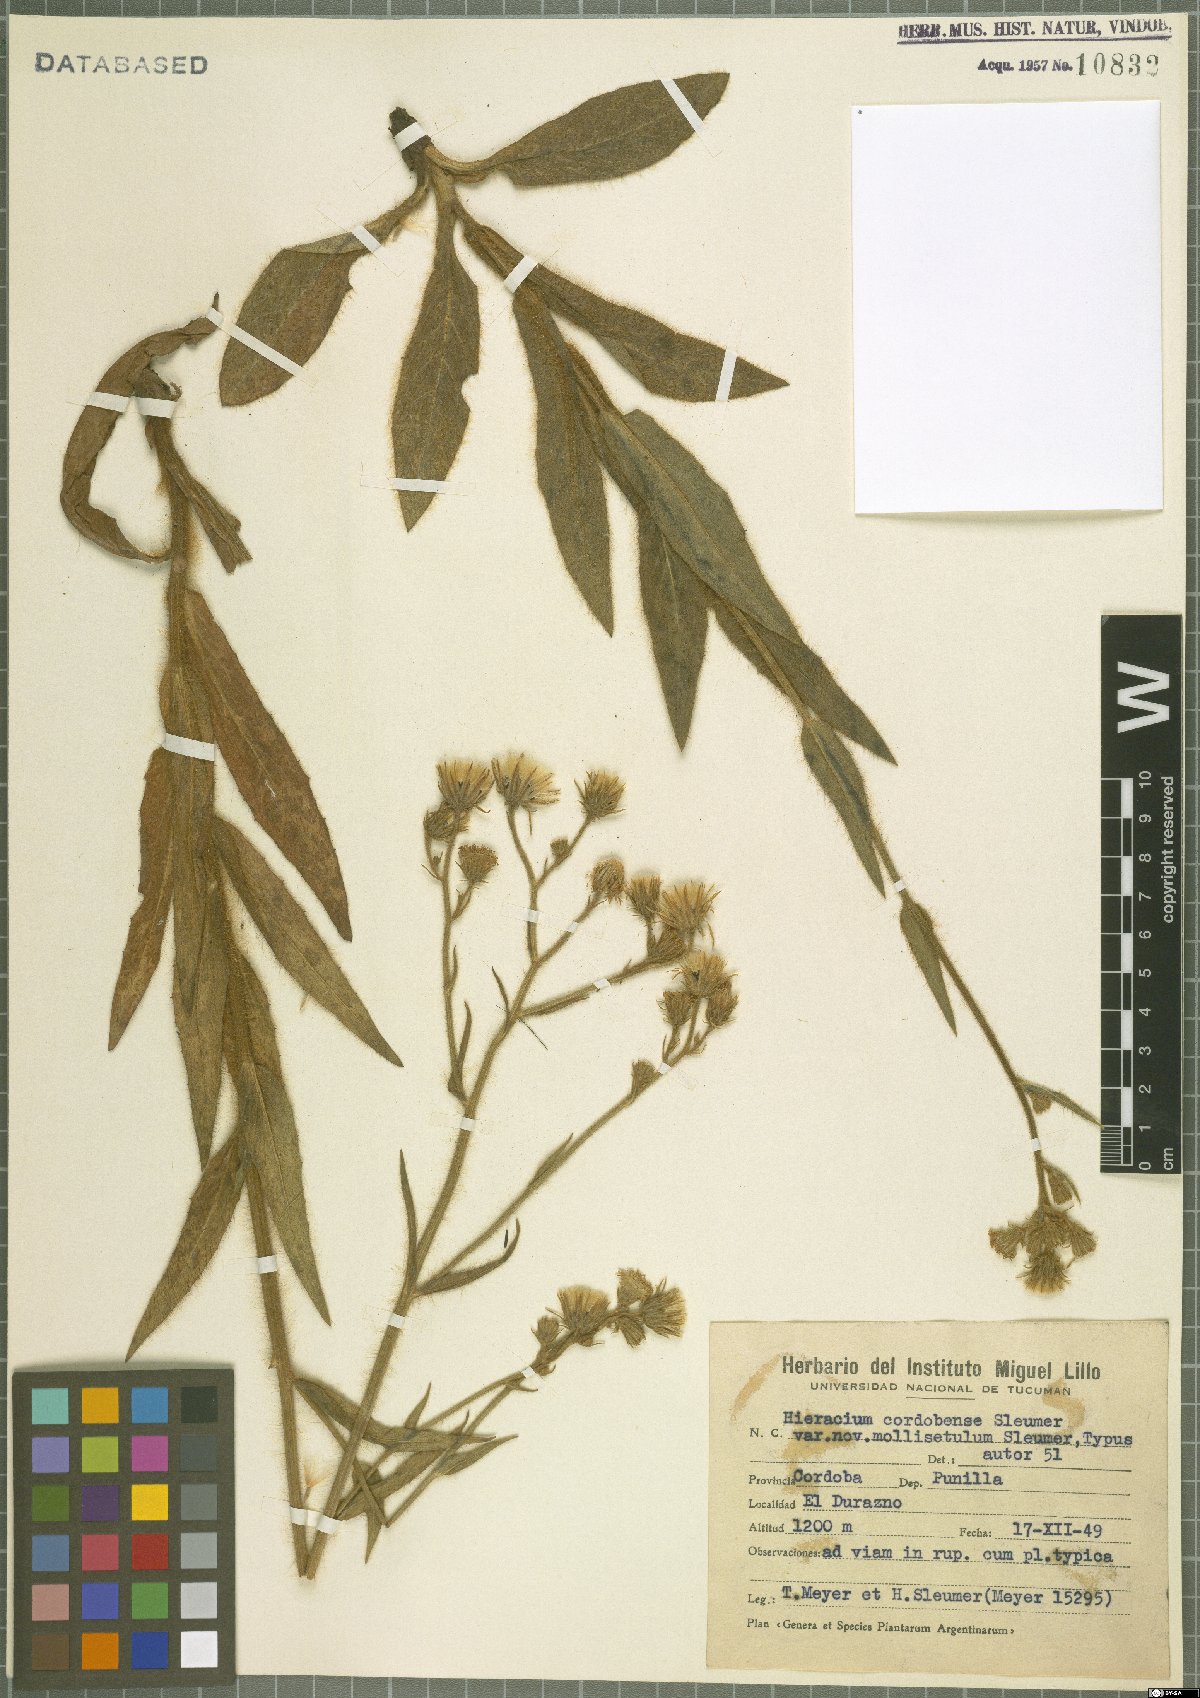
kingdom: Plantae
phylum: Tracheophyta
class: Magnoliopsida
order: Asterales
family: Asteraceae
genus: Hieracium
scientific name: Hieracium cordobense
